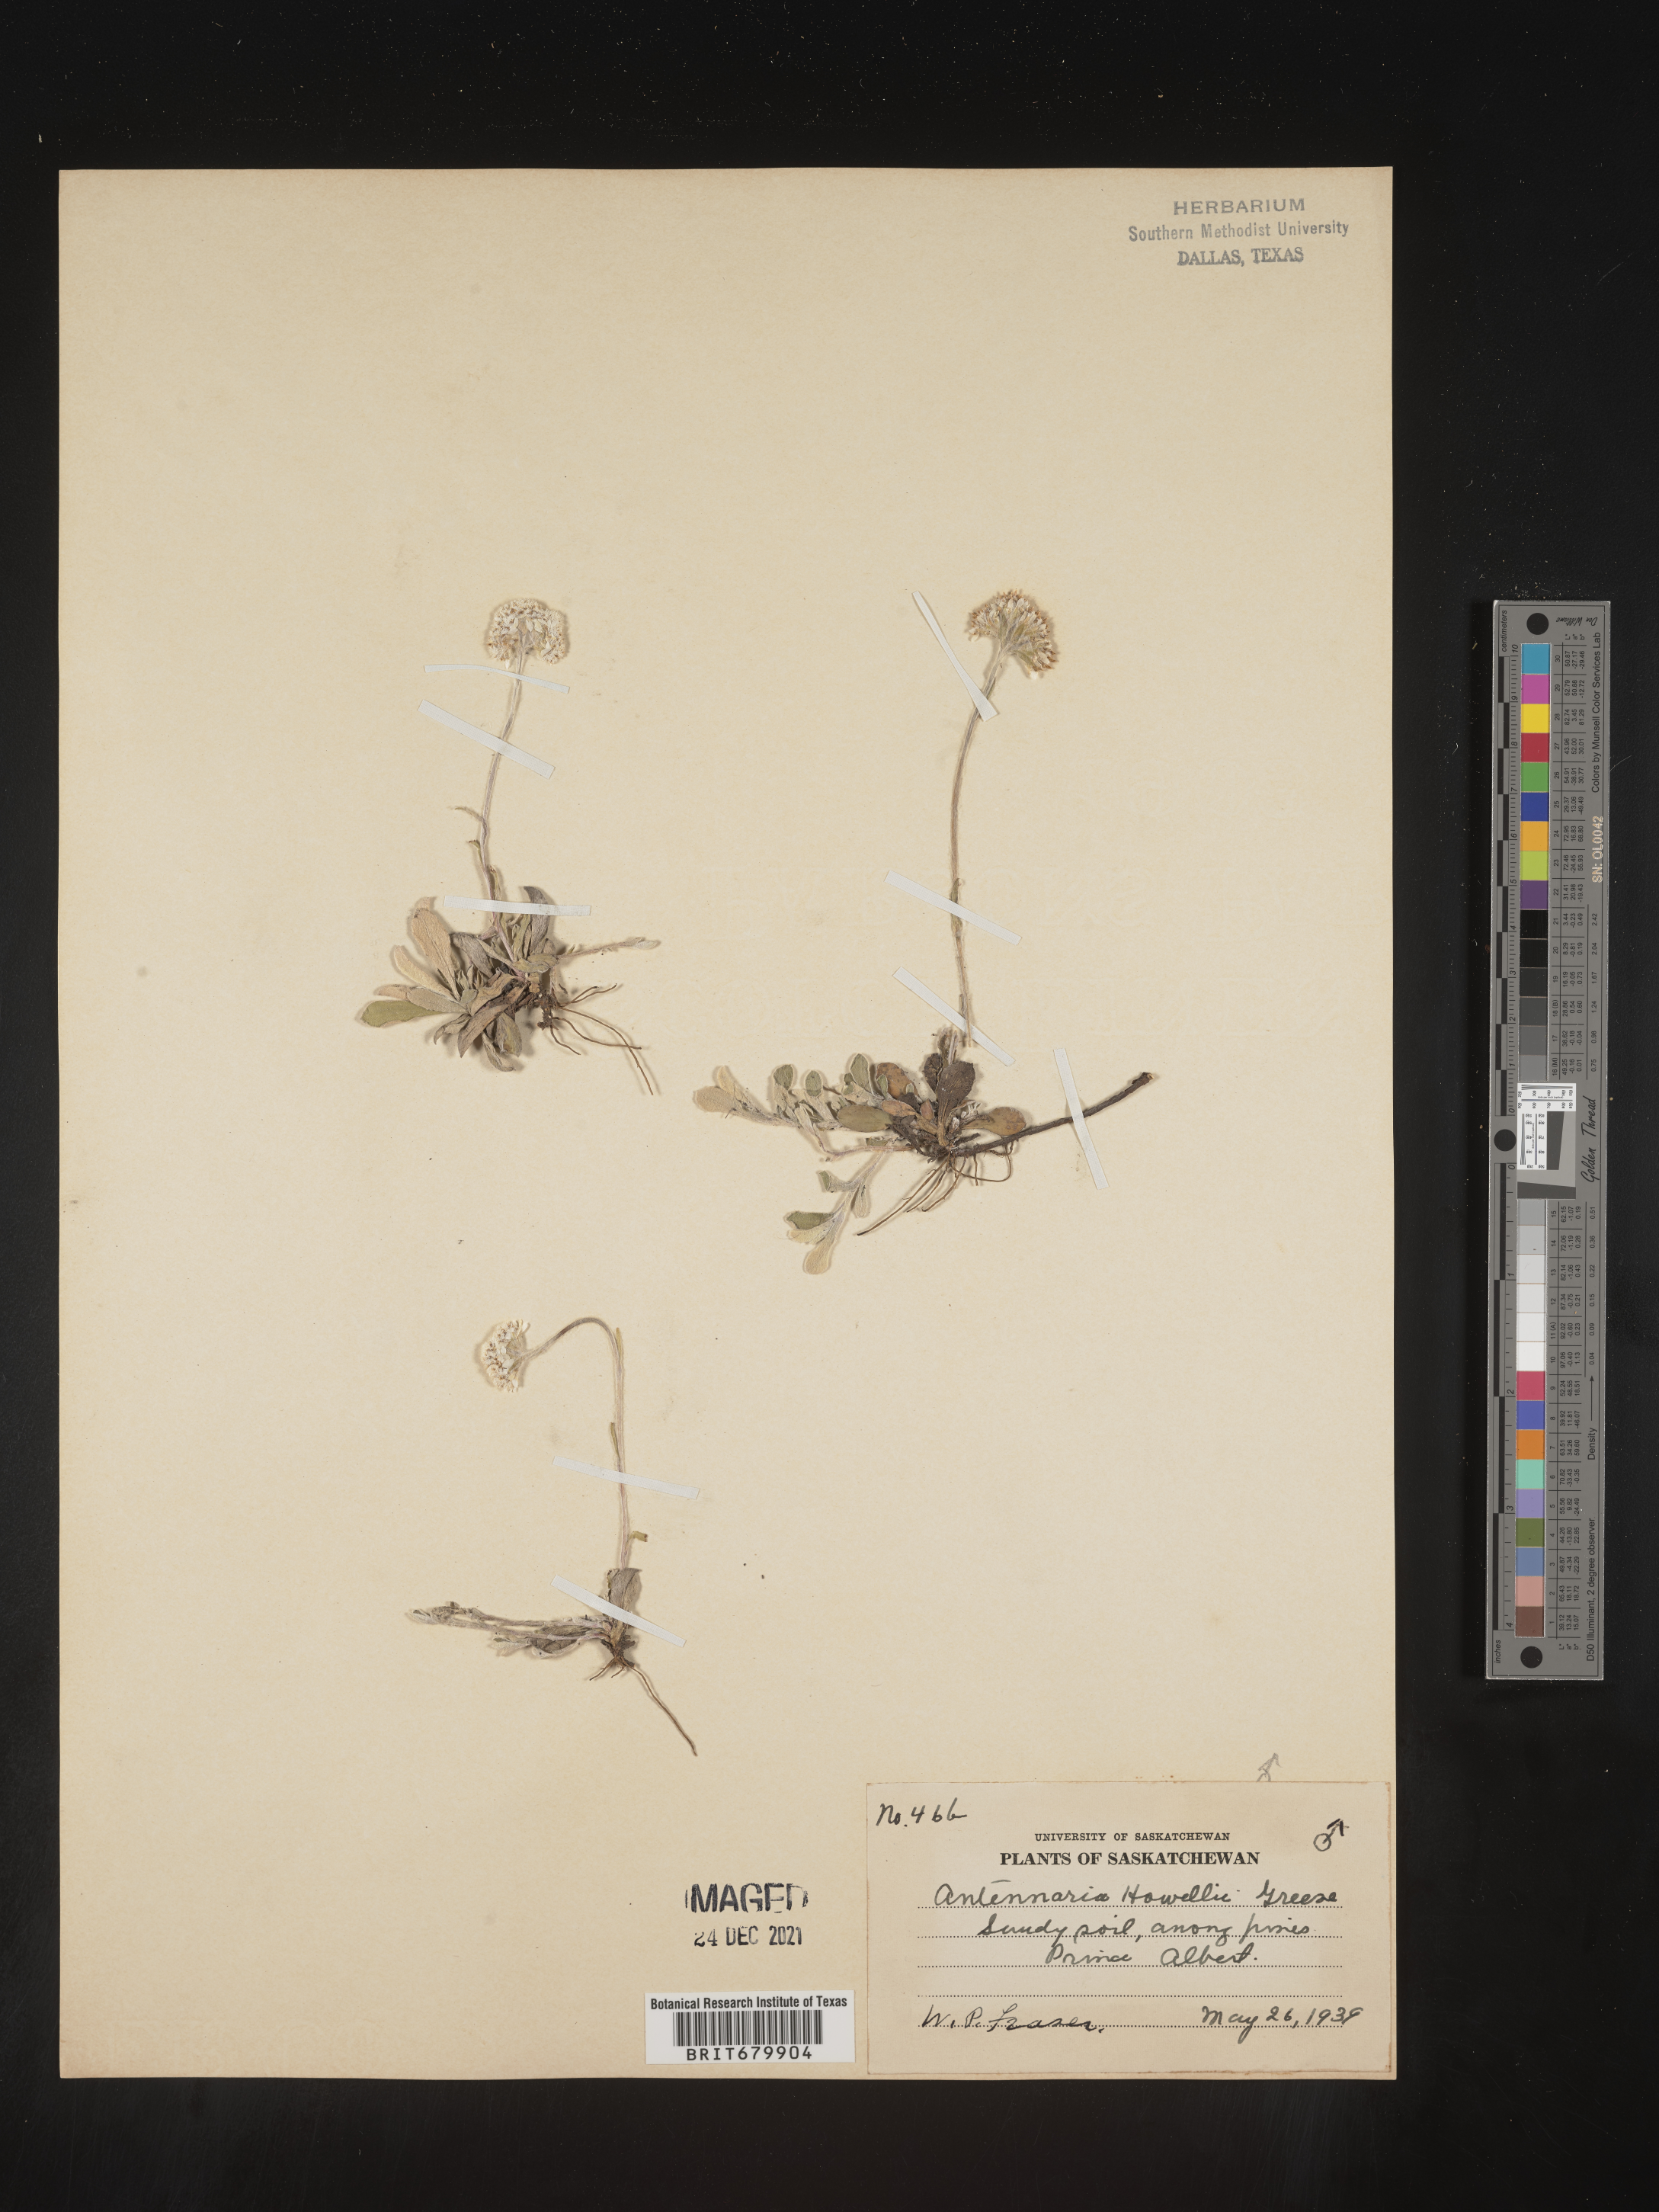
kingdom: Plantae
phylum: Tracheophyta
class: Magnoliopsida
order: Asterales
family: Asteraceae
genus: Antennaria
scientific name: Antennaria howellii
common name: Howell's pussytoes
